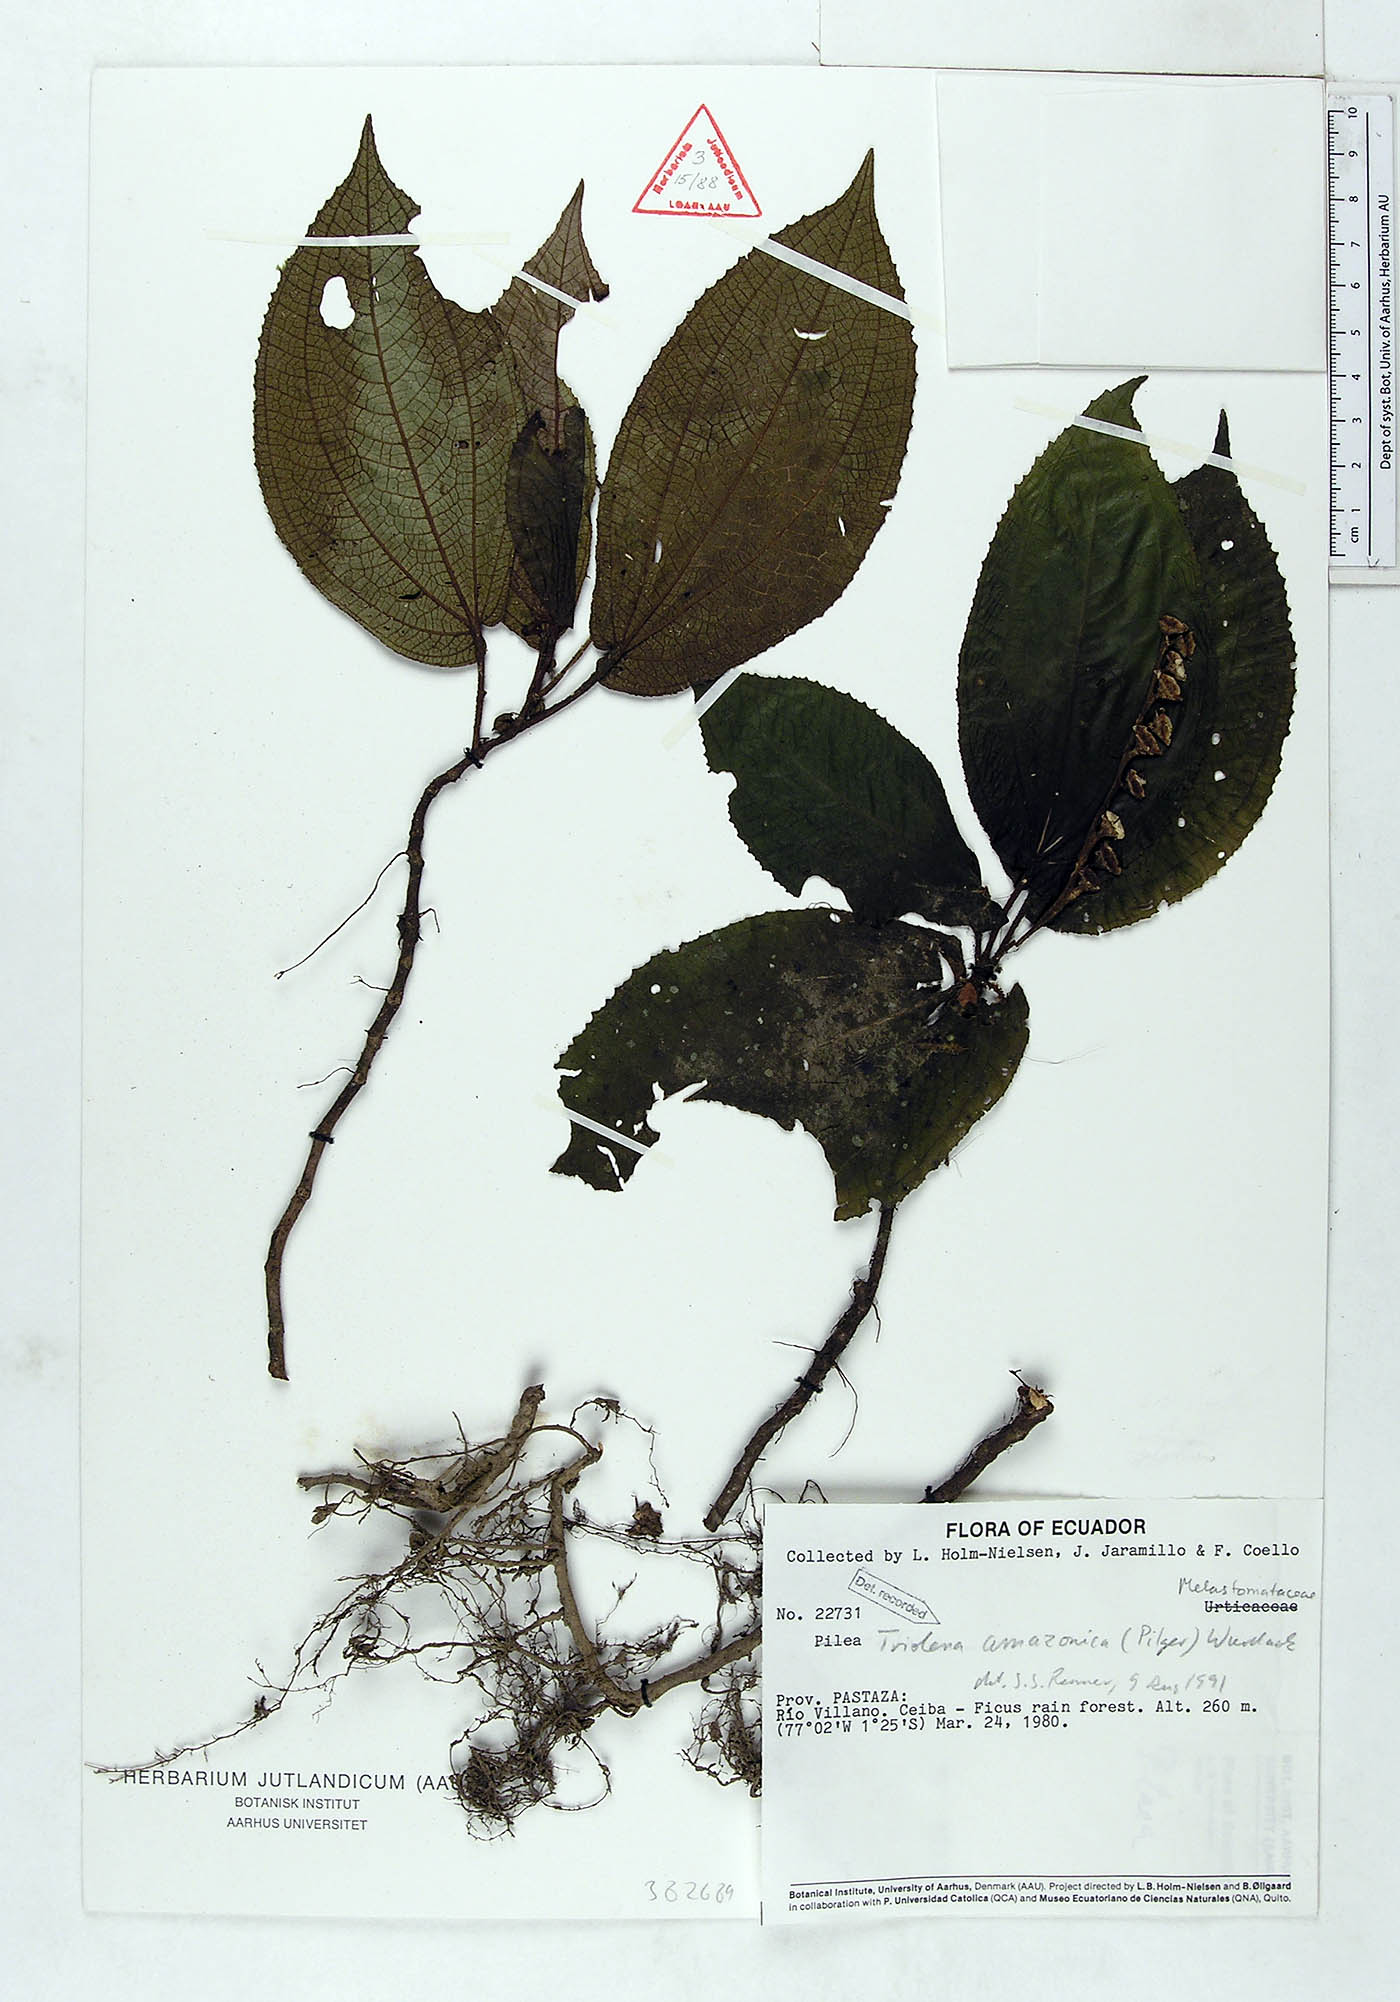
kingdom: Plantae
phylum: Tracheophyta
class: Magnoliopsida
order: Myrtales
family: Melastomataceae
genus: Triolena
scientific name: Triolena amazonica
